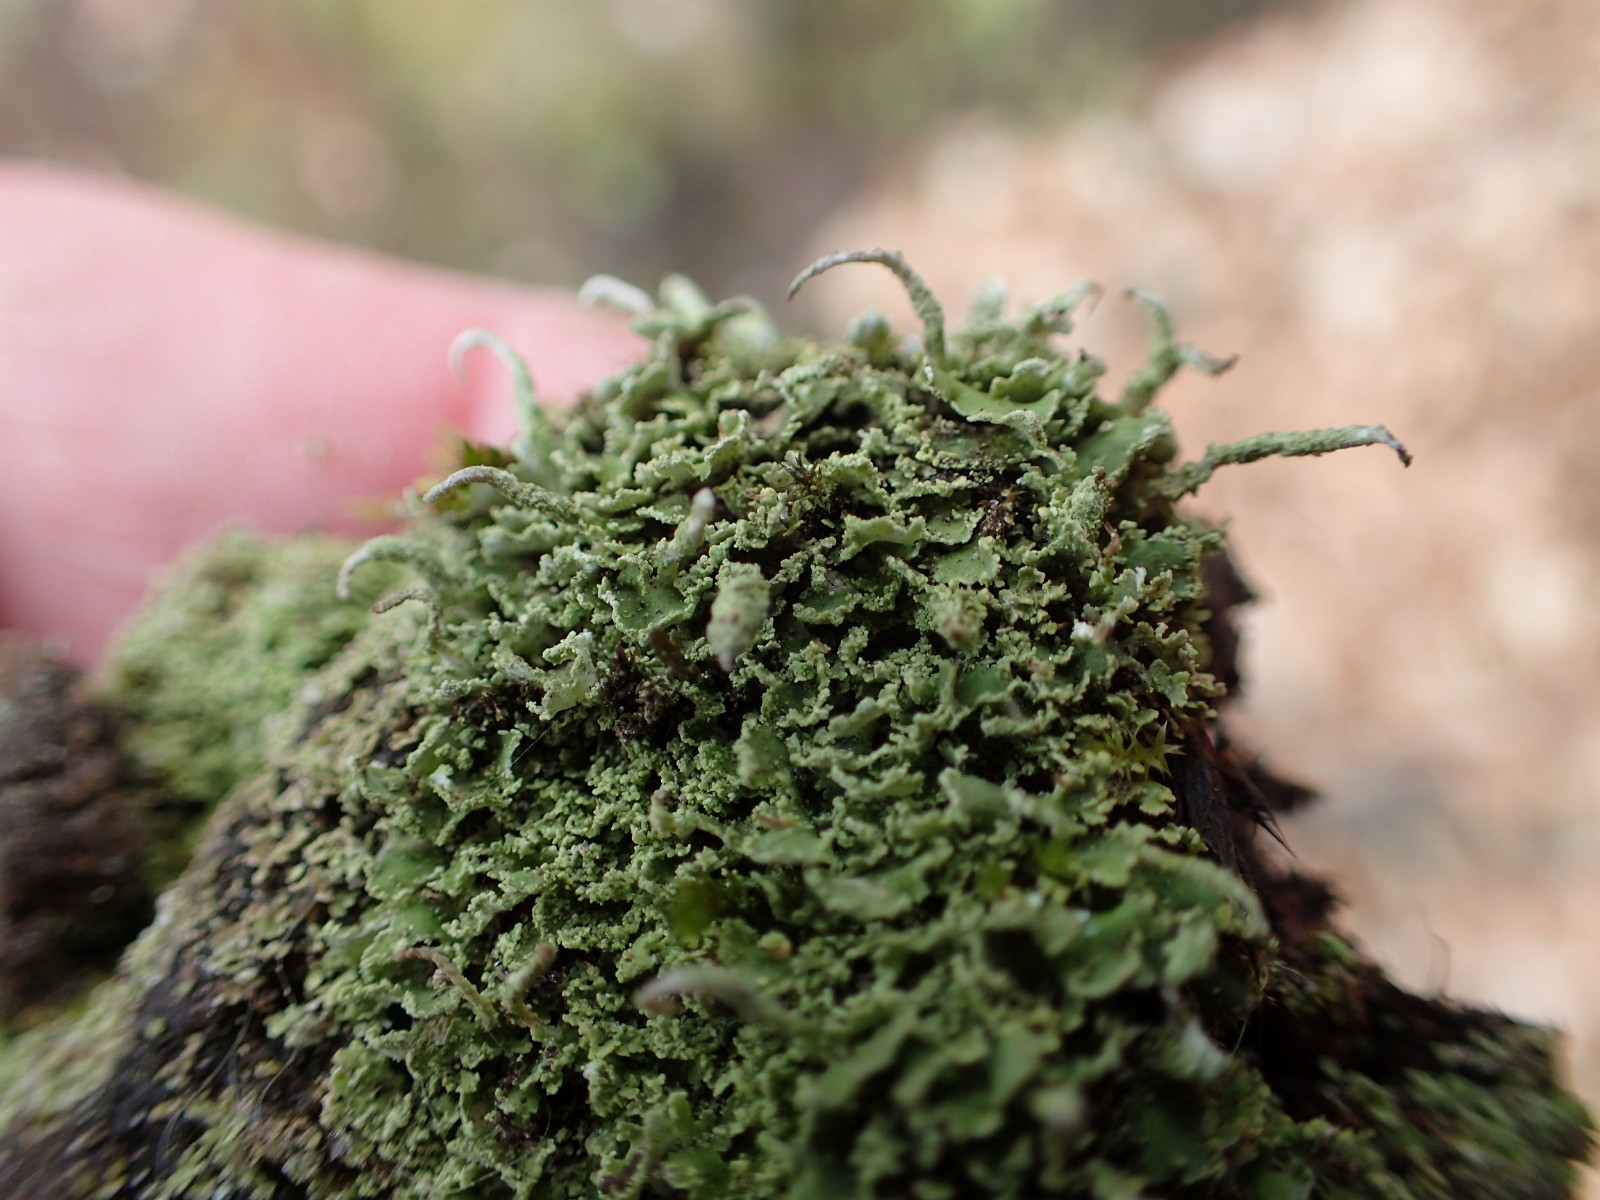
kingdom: Fungi
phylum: Ascomycota
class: Lecanoromycetes
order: Lecanorales
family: Cladoniaceae
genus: Cladonia
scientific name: Cladonia coniocraea
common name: træfods-bægerlav
